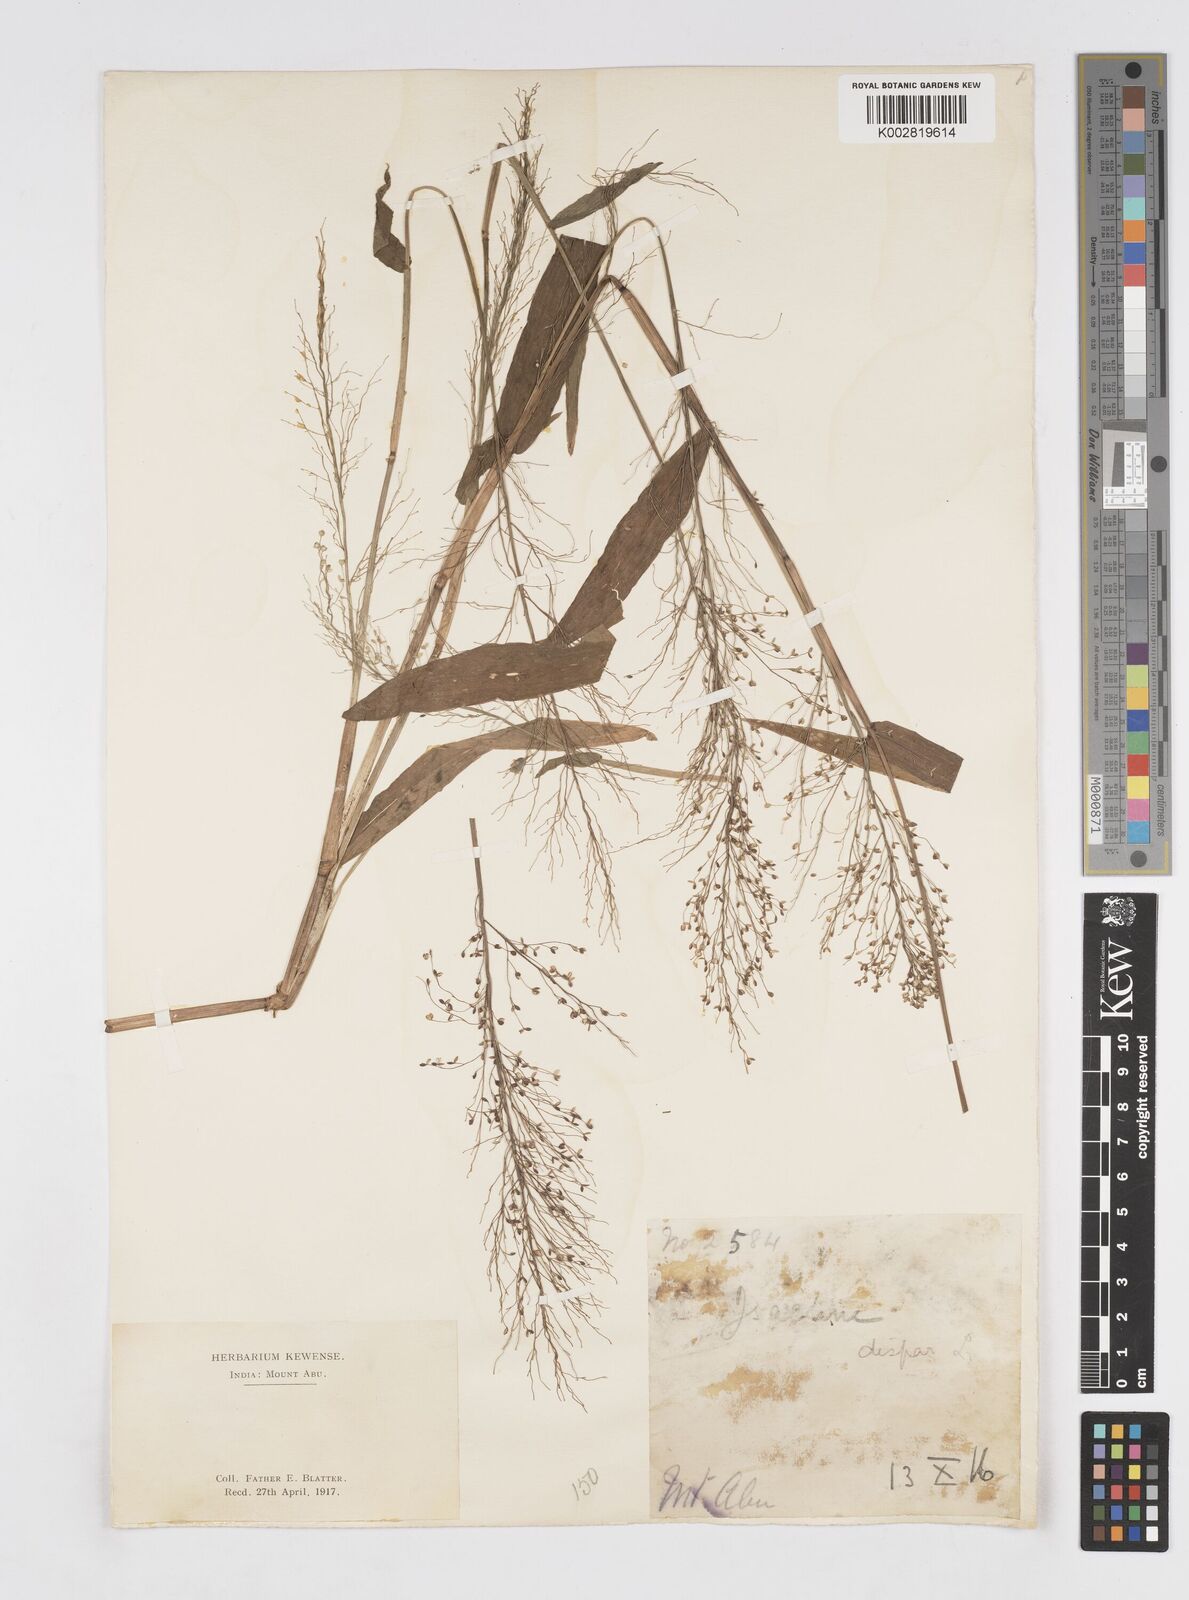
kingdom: Plantae
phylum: Tracheophyta
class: Liliopsida
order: Poales
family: Poaceae
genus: Isachne
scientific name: Isachne globosa
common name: Swamp millet
